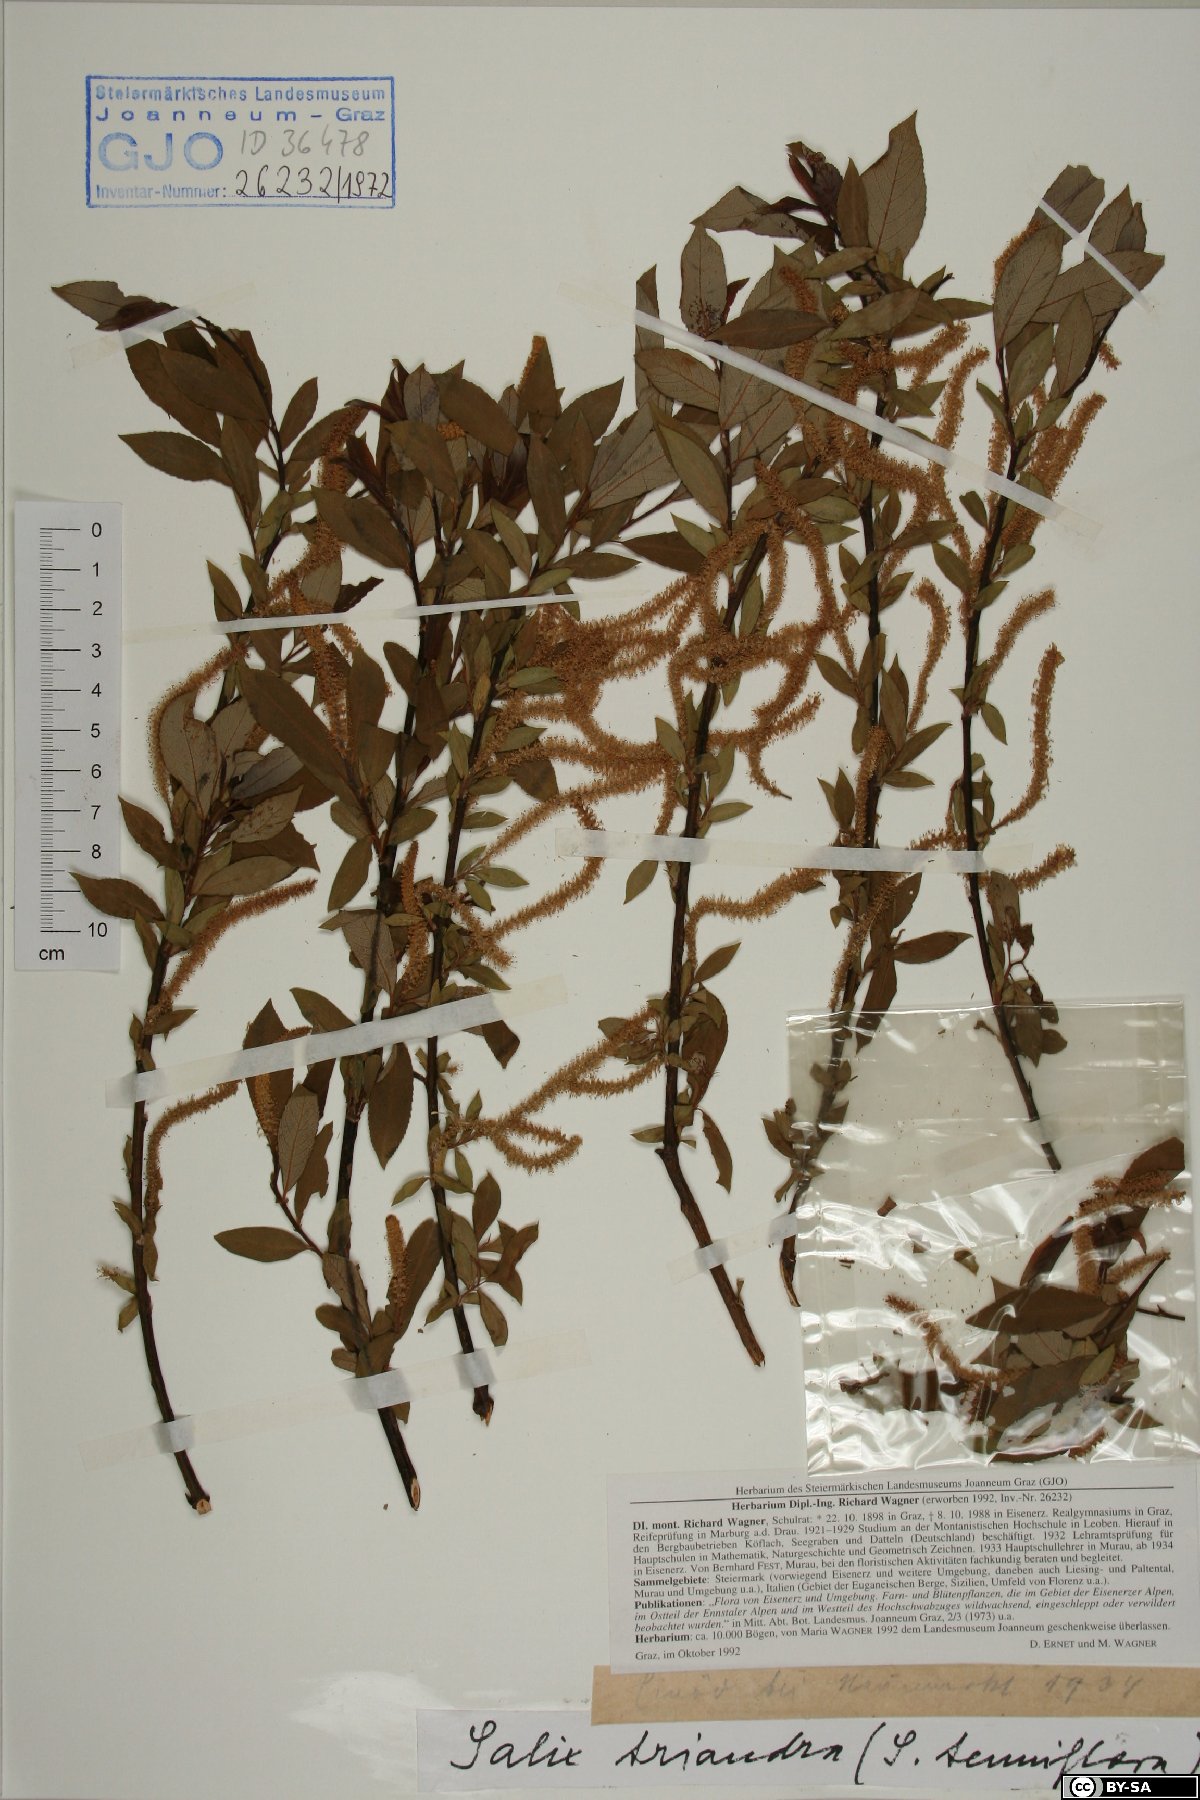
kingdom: Plantae
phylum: Tracheophyta
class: Magnoliopsida
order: Malpighiales
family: Salicaceae
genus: Salix
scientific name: Salix triandra
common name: Almond willow
